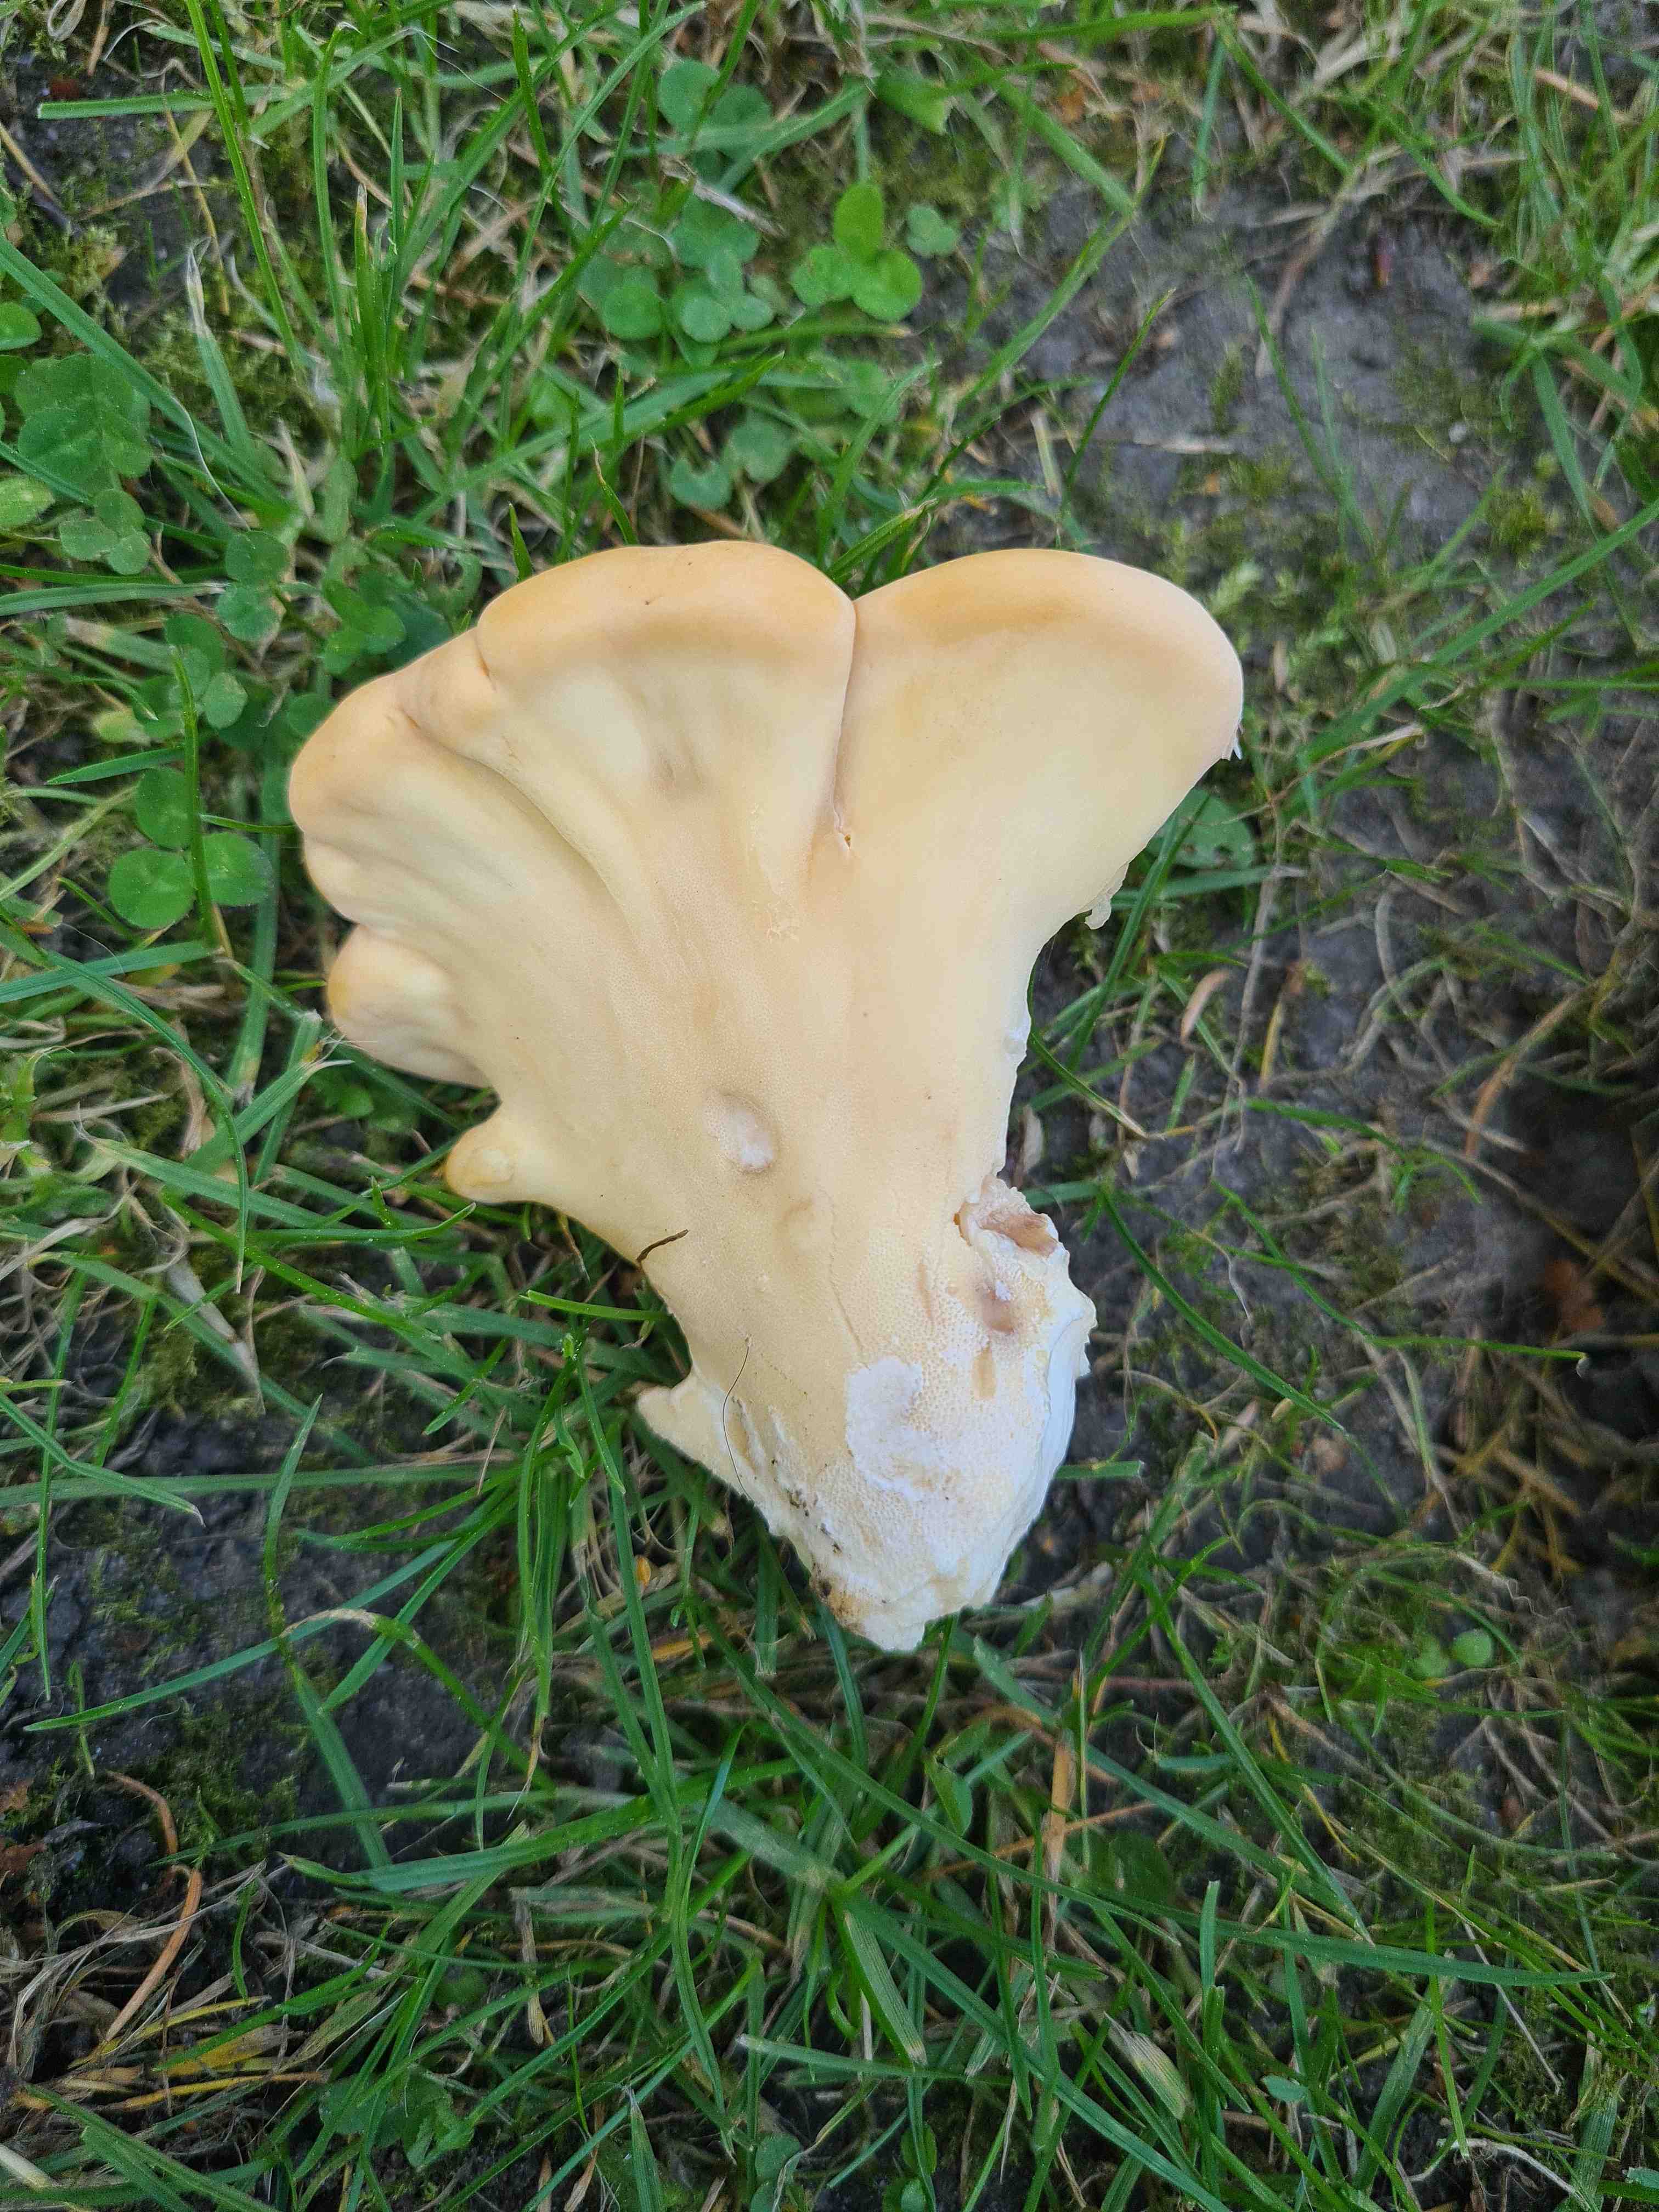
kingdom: Fungi
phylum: Basidiomycota
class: Agaricomycetes
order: Polyporales
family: Meripilaceae
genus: Meripilus
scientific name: Meripilus giganteus
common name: kæmpeporesvamp
